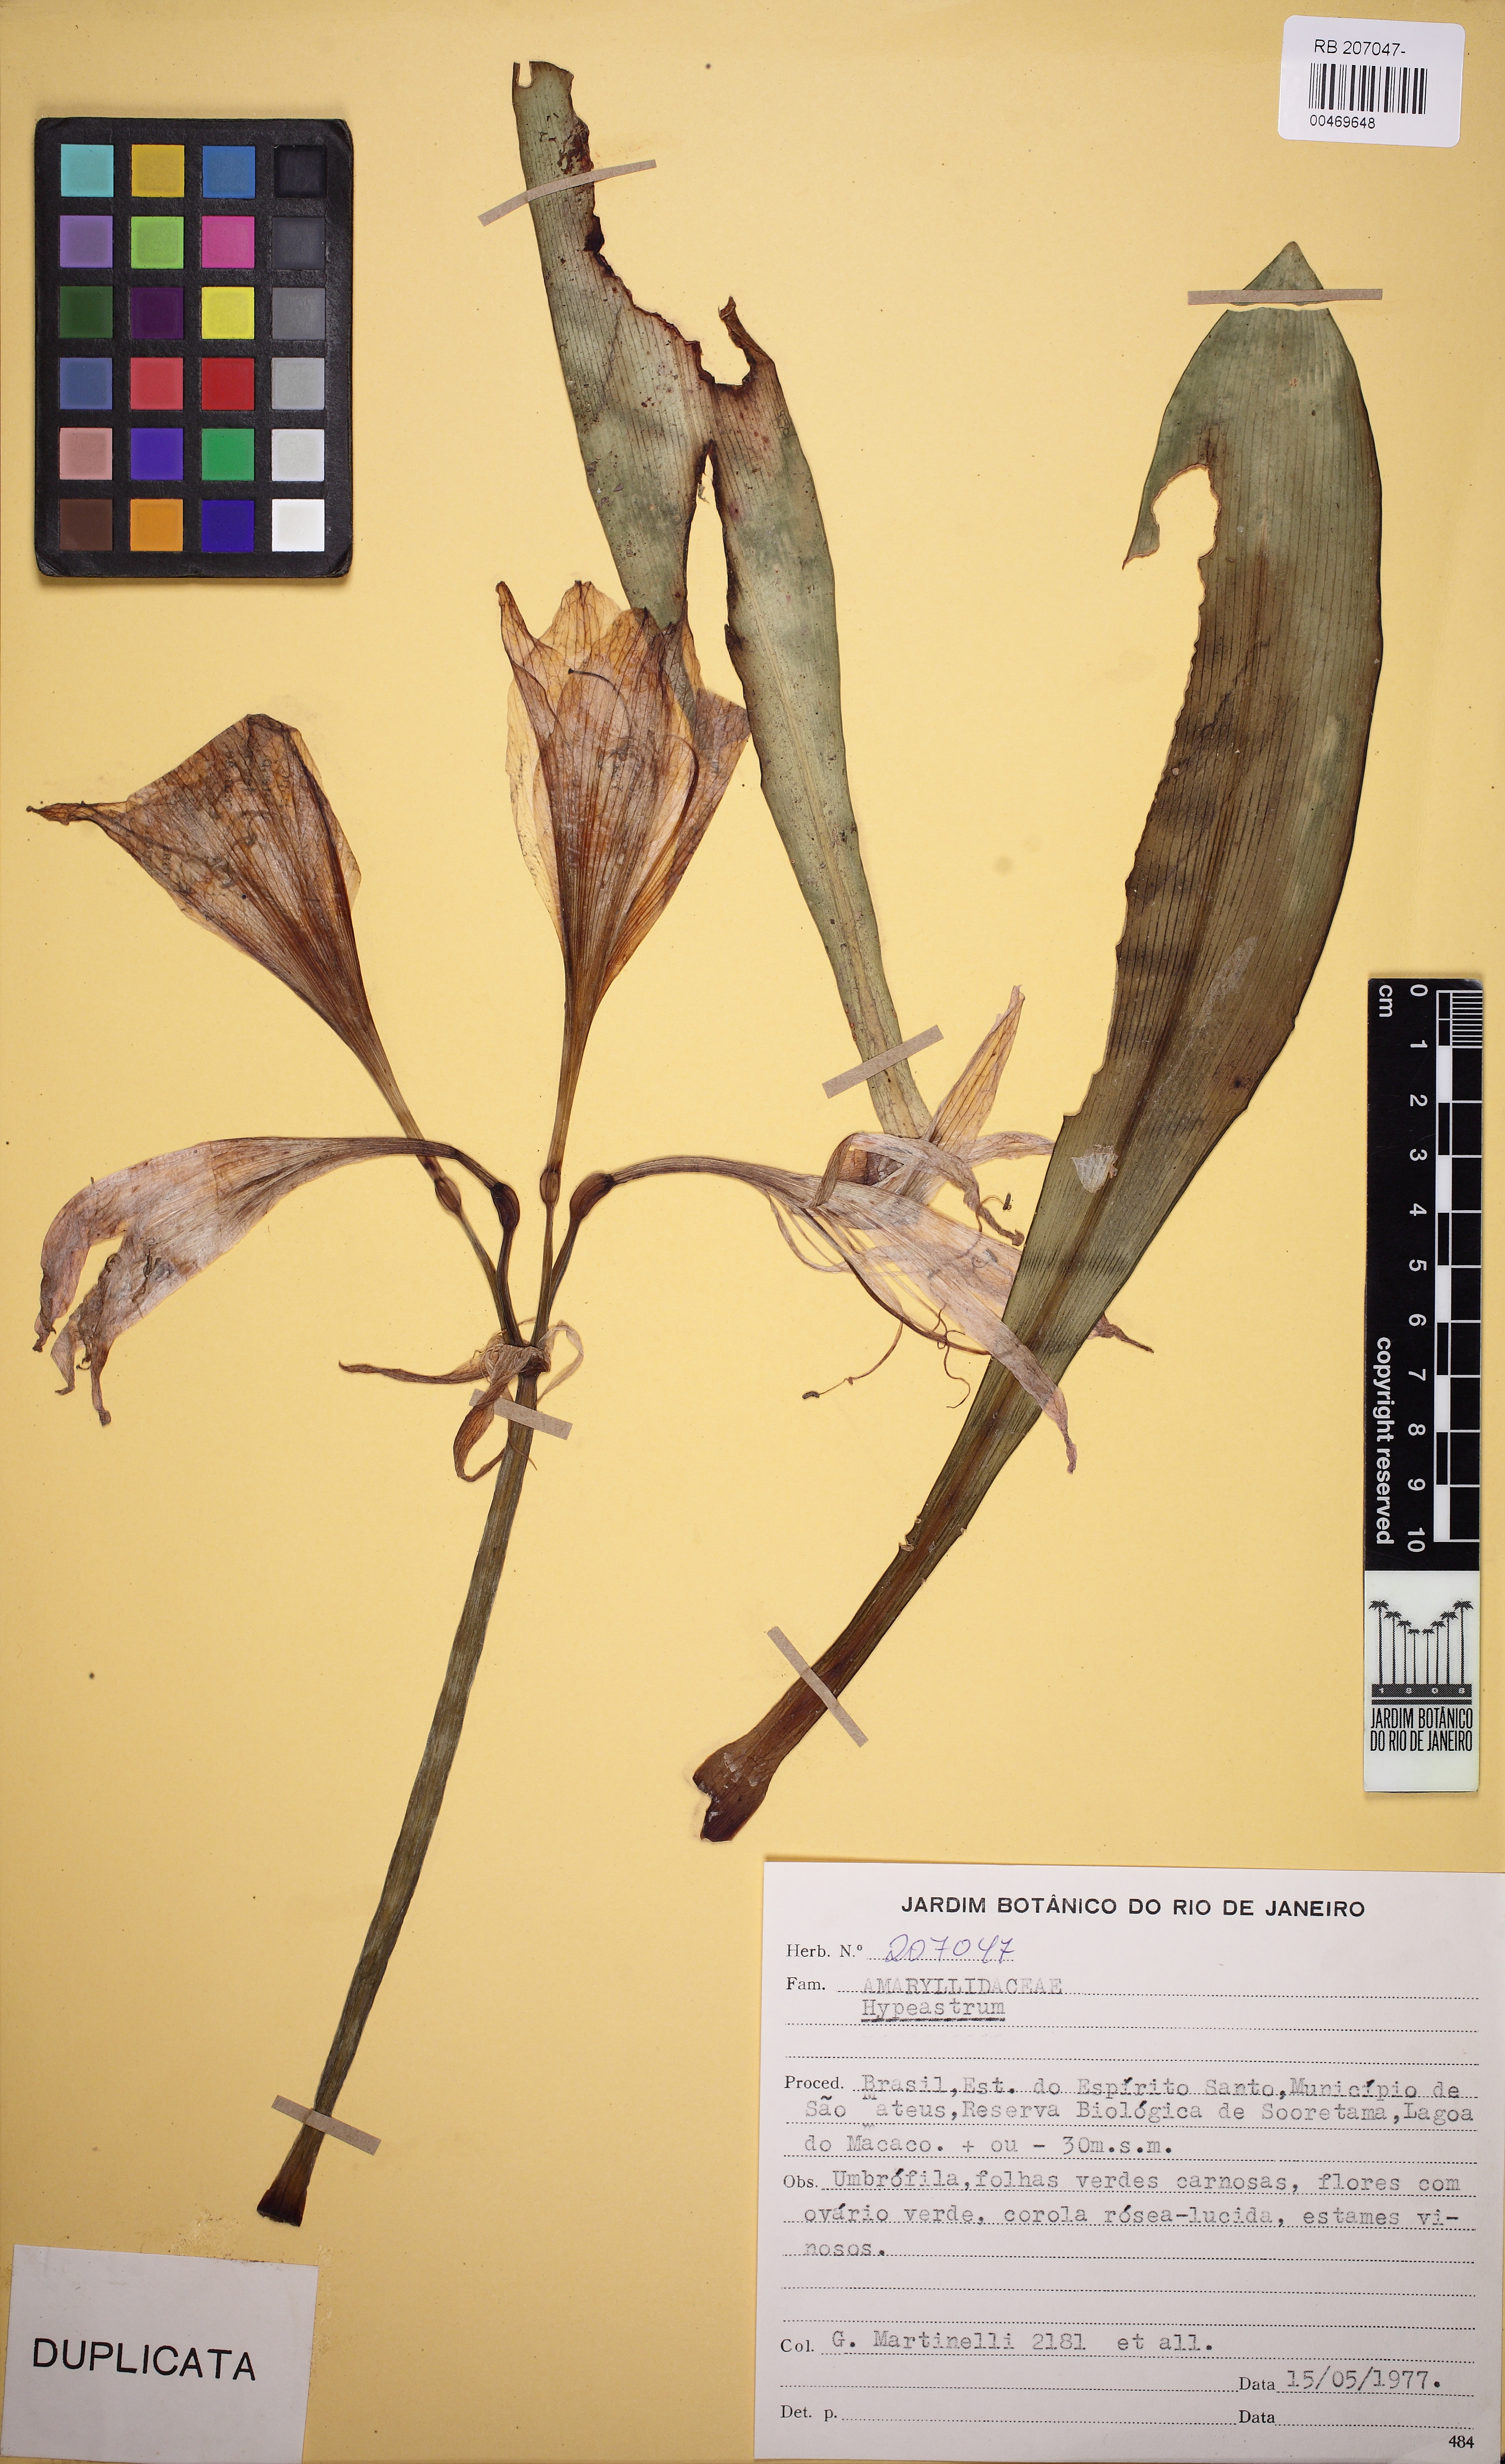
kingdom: Plantae
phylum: Tracheophyta
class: Liliopsida
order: Asparagales
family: Amaryllidaceae
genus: Hippeastrum
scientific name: Hippeastrum reticulatum
